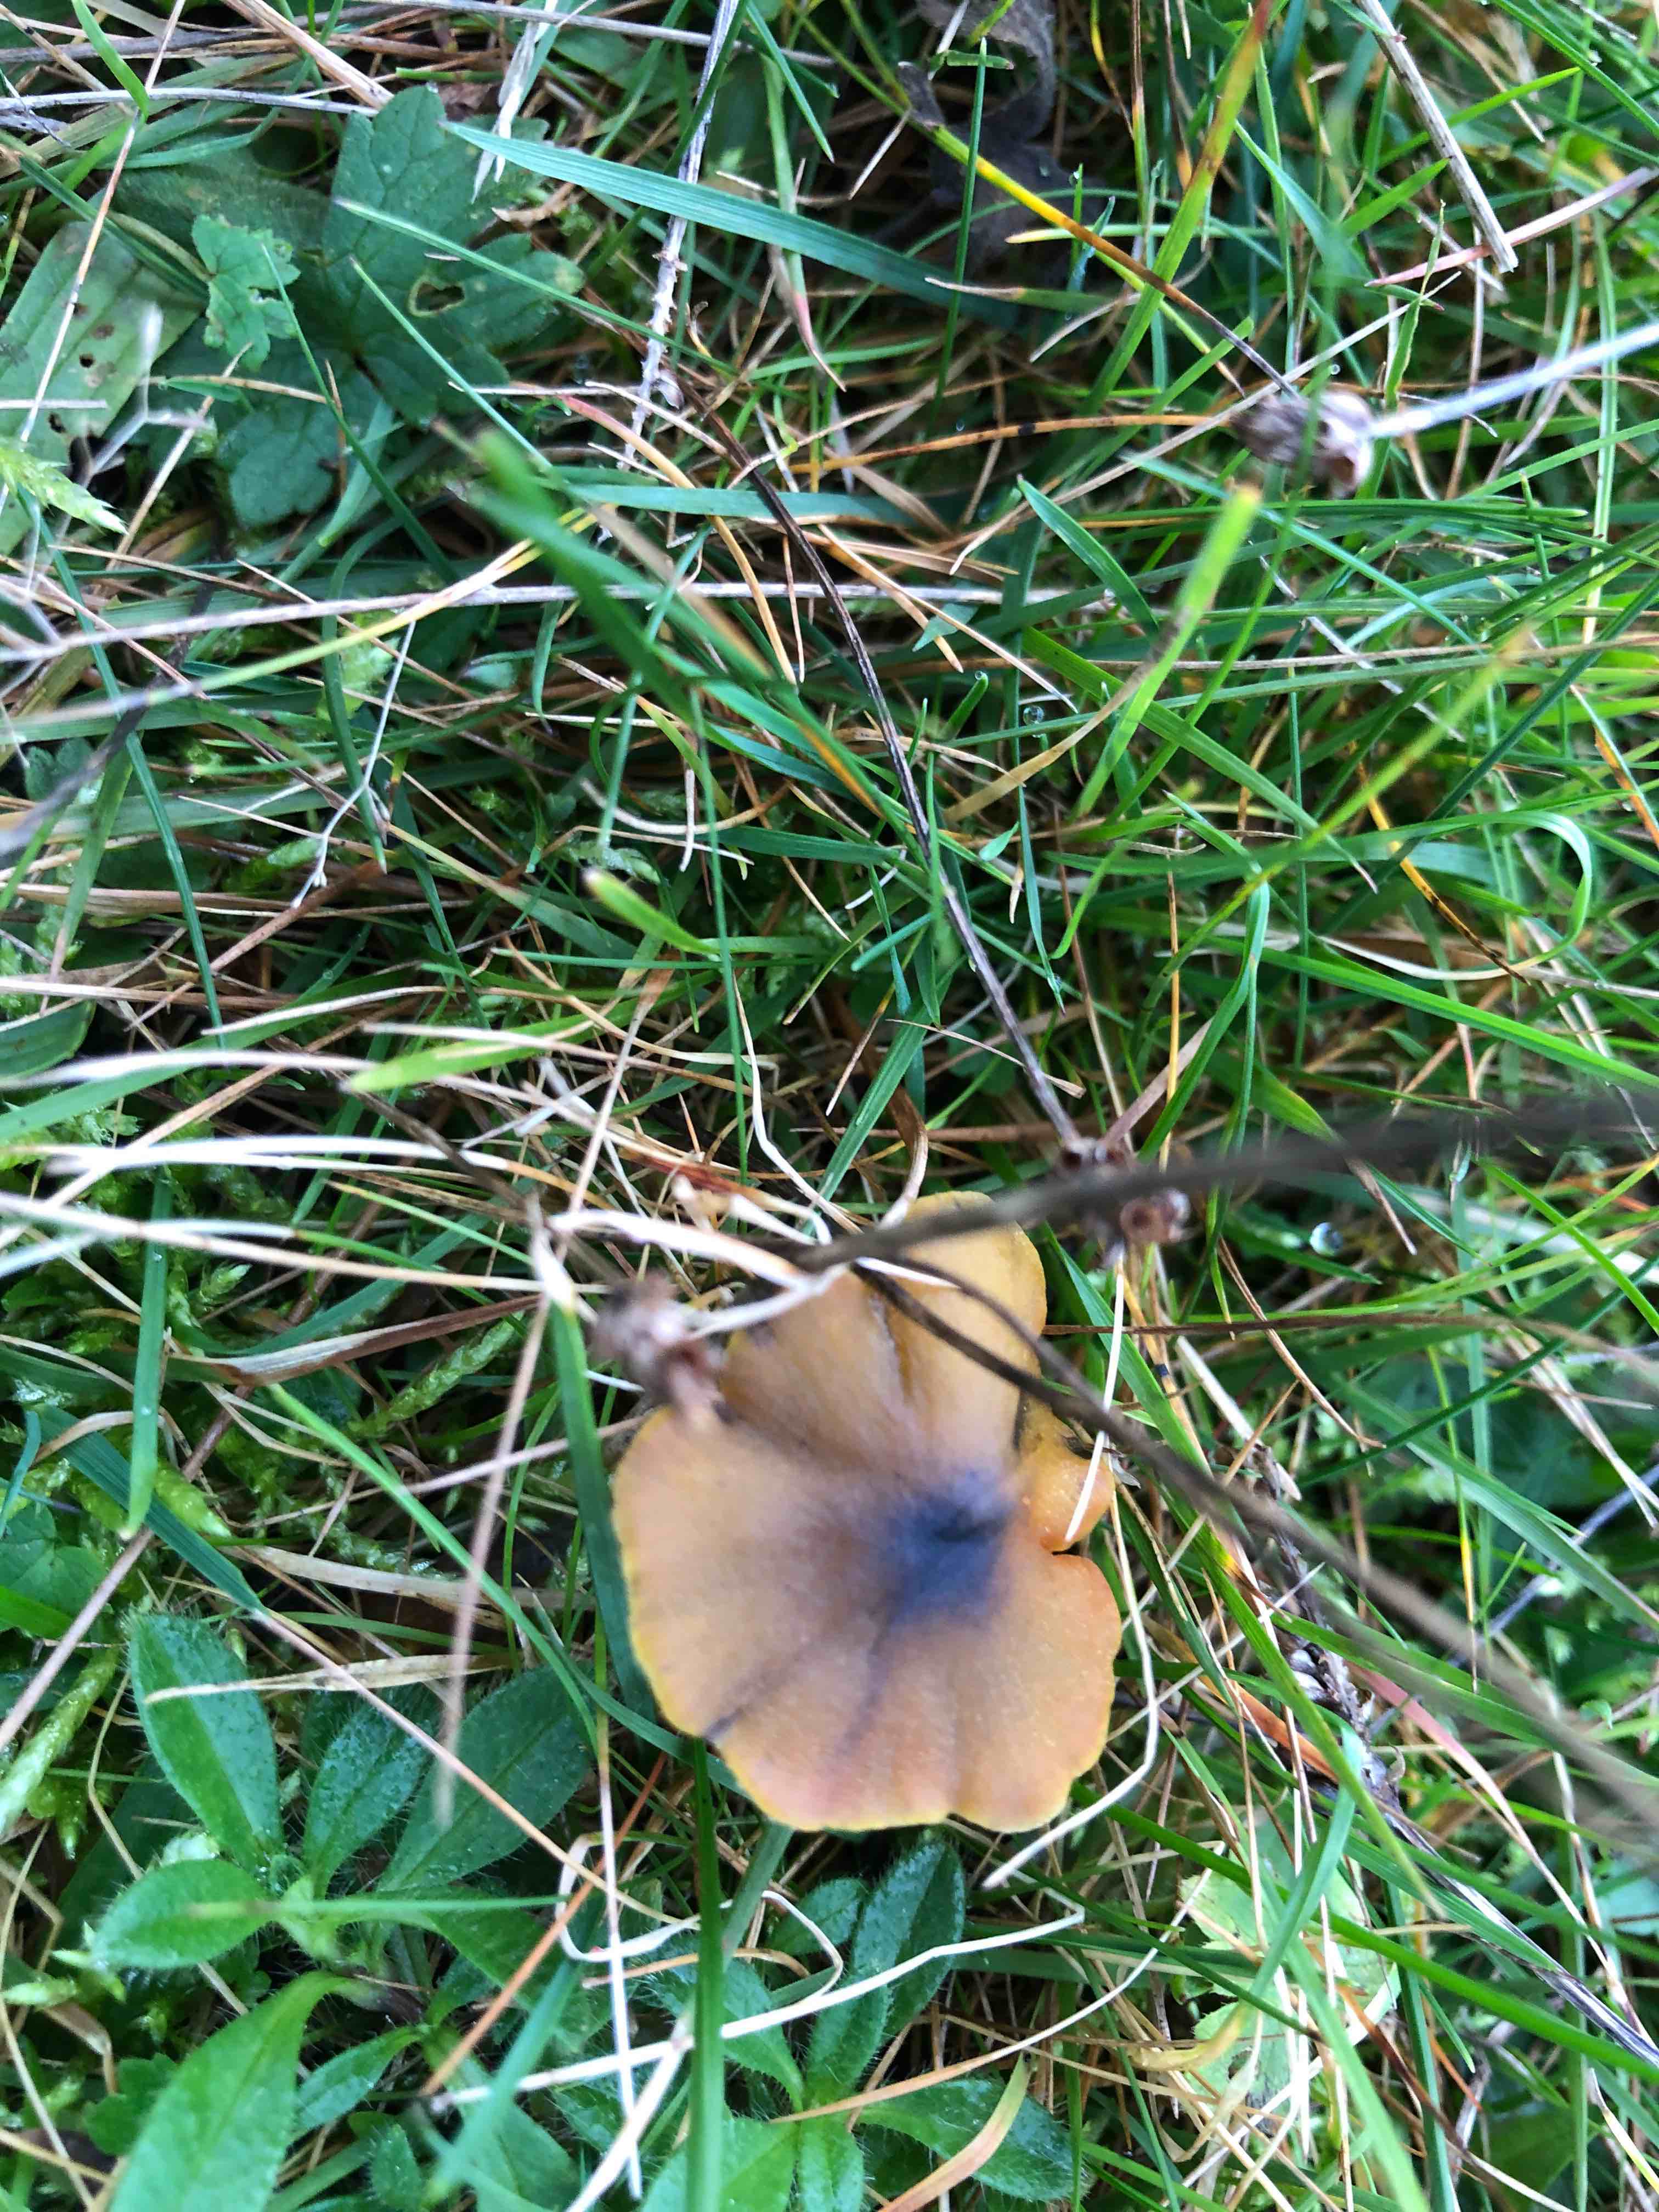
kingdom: Fungi
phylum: Basidiomycota
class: Agaricomycetes
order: Agaricales
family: Hygrophoraceae
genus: Hygrocybe
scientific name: Hygrocybe conica
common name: kegle-vokshat
